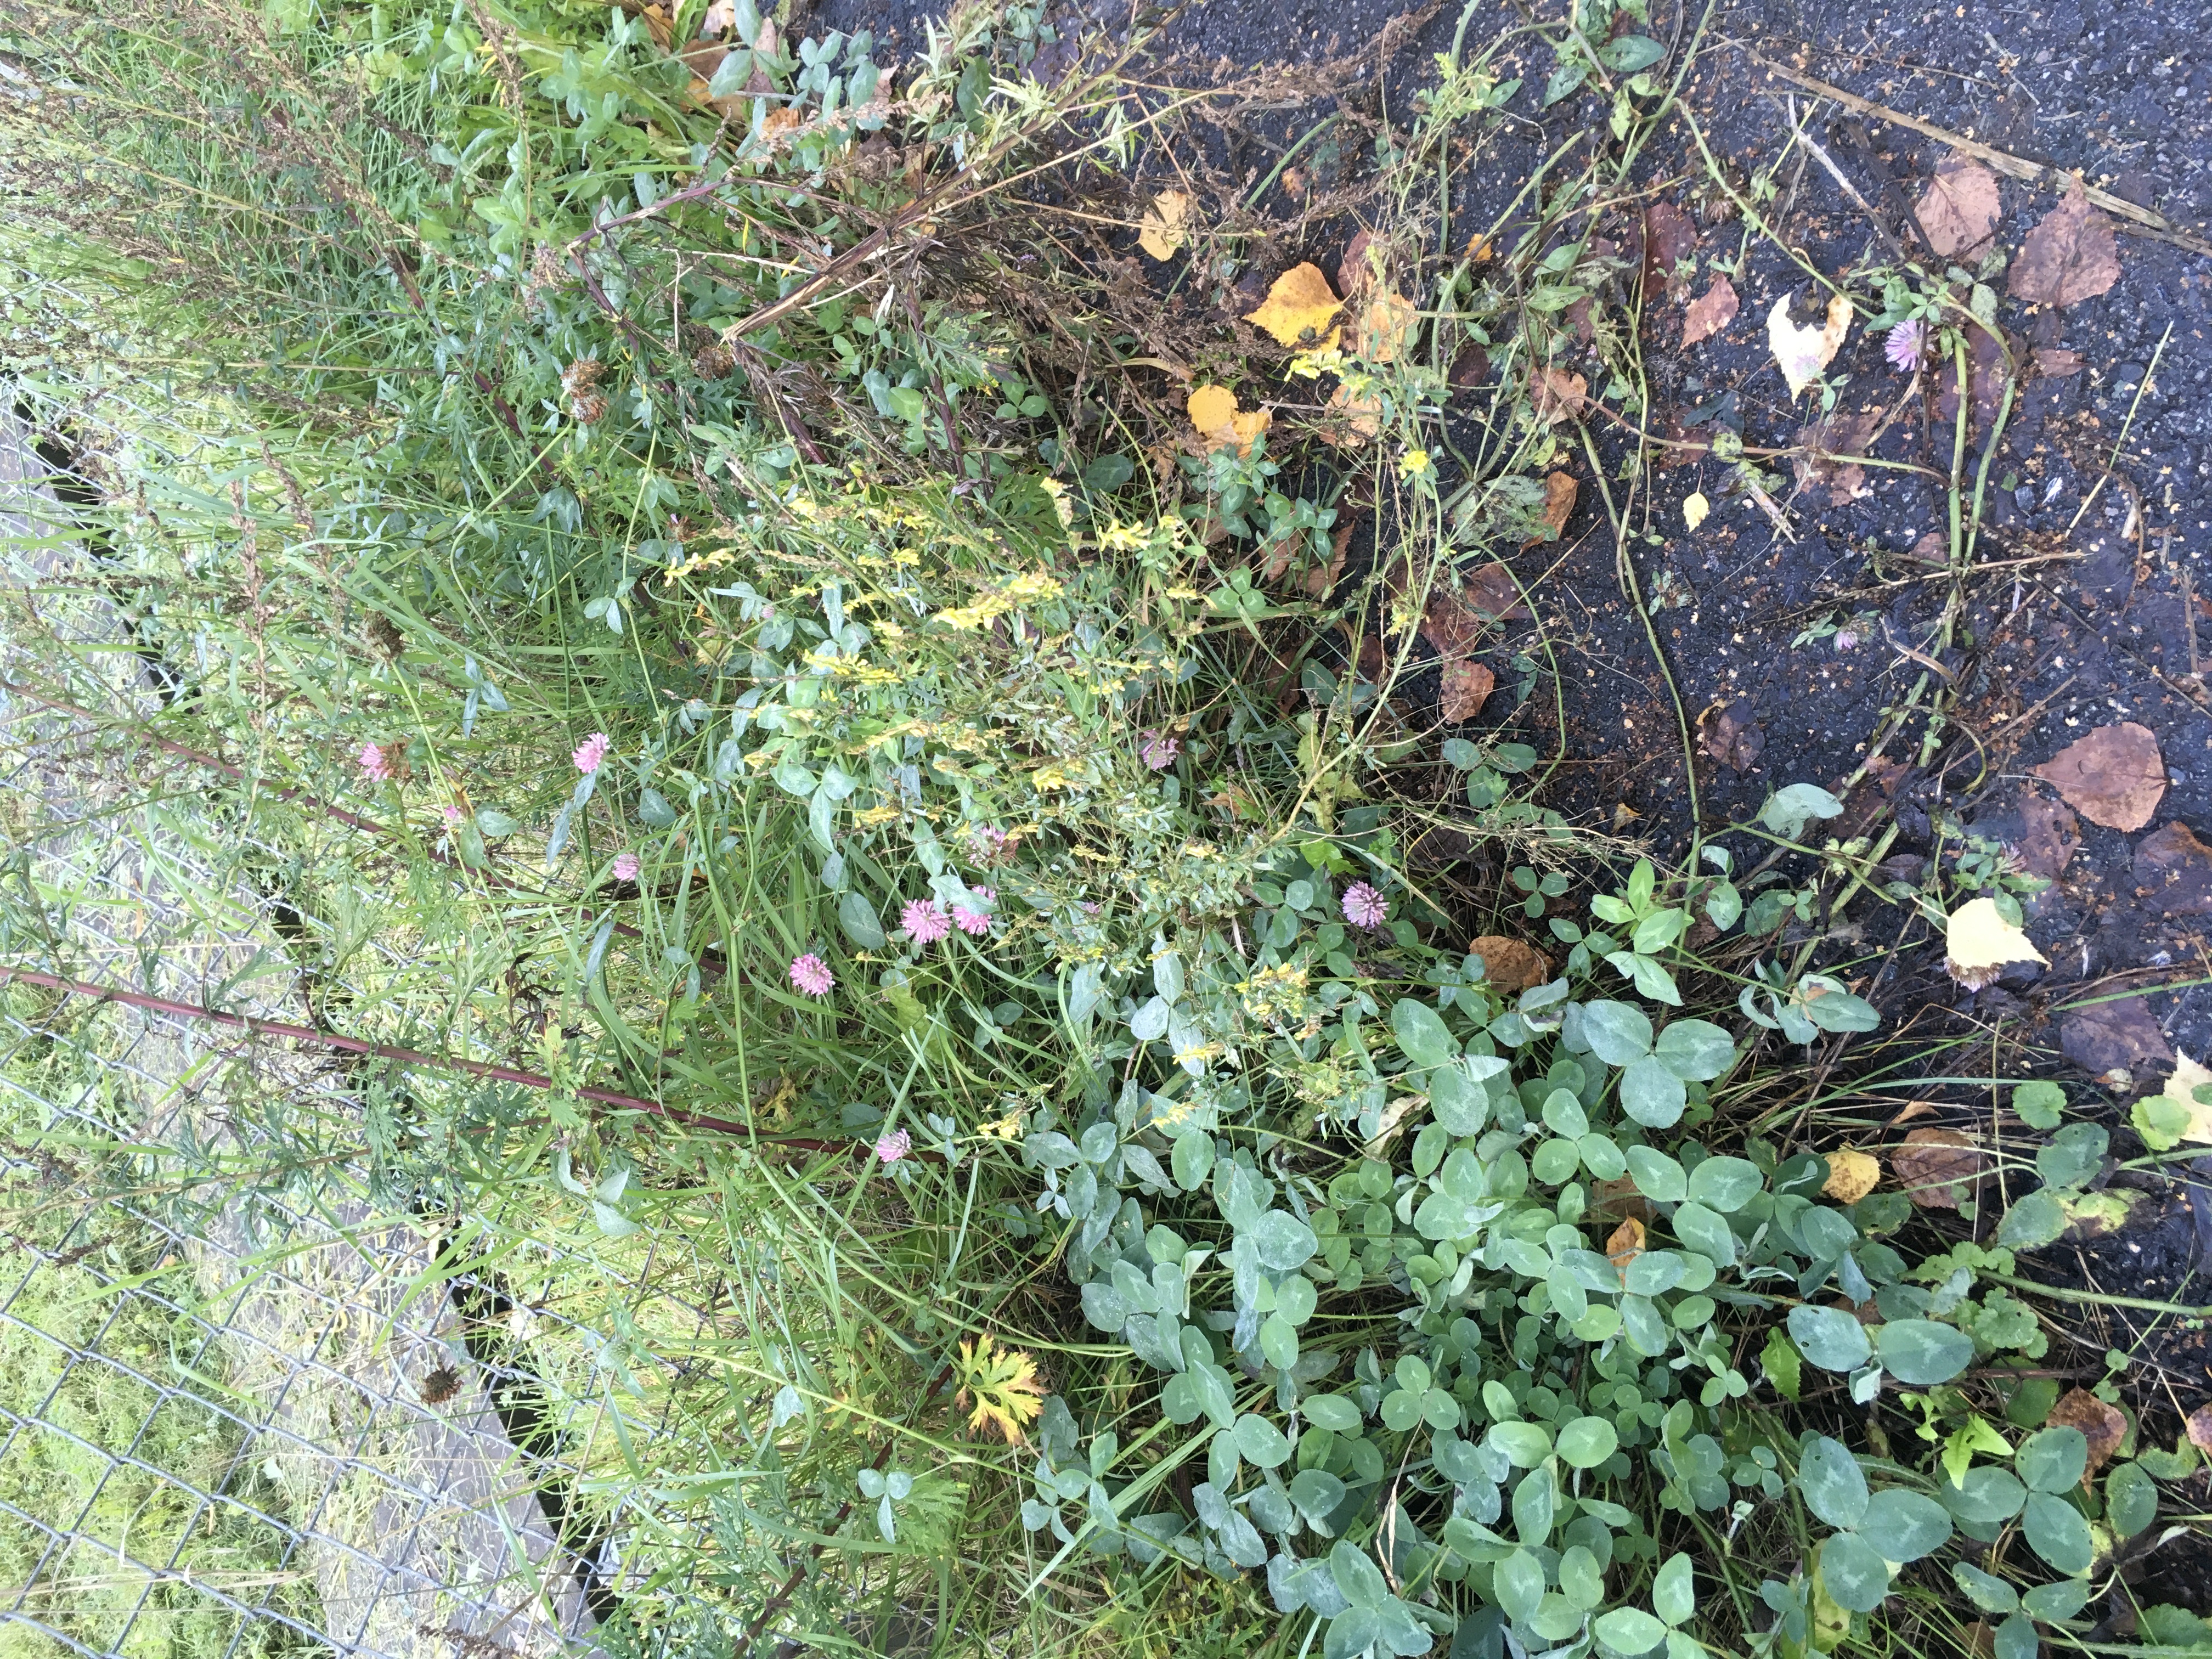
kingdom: Plantae
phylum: Tracheophyta
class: Magnoliopsida
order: Fabales
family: Fabaceae
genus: Melilotus
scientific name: Melilotus officinalis
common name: legesteinkløver
